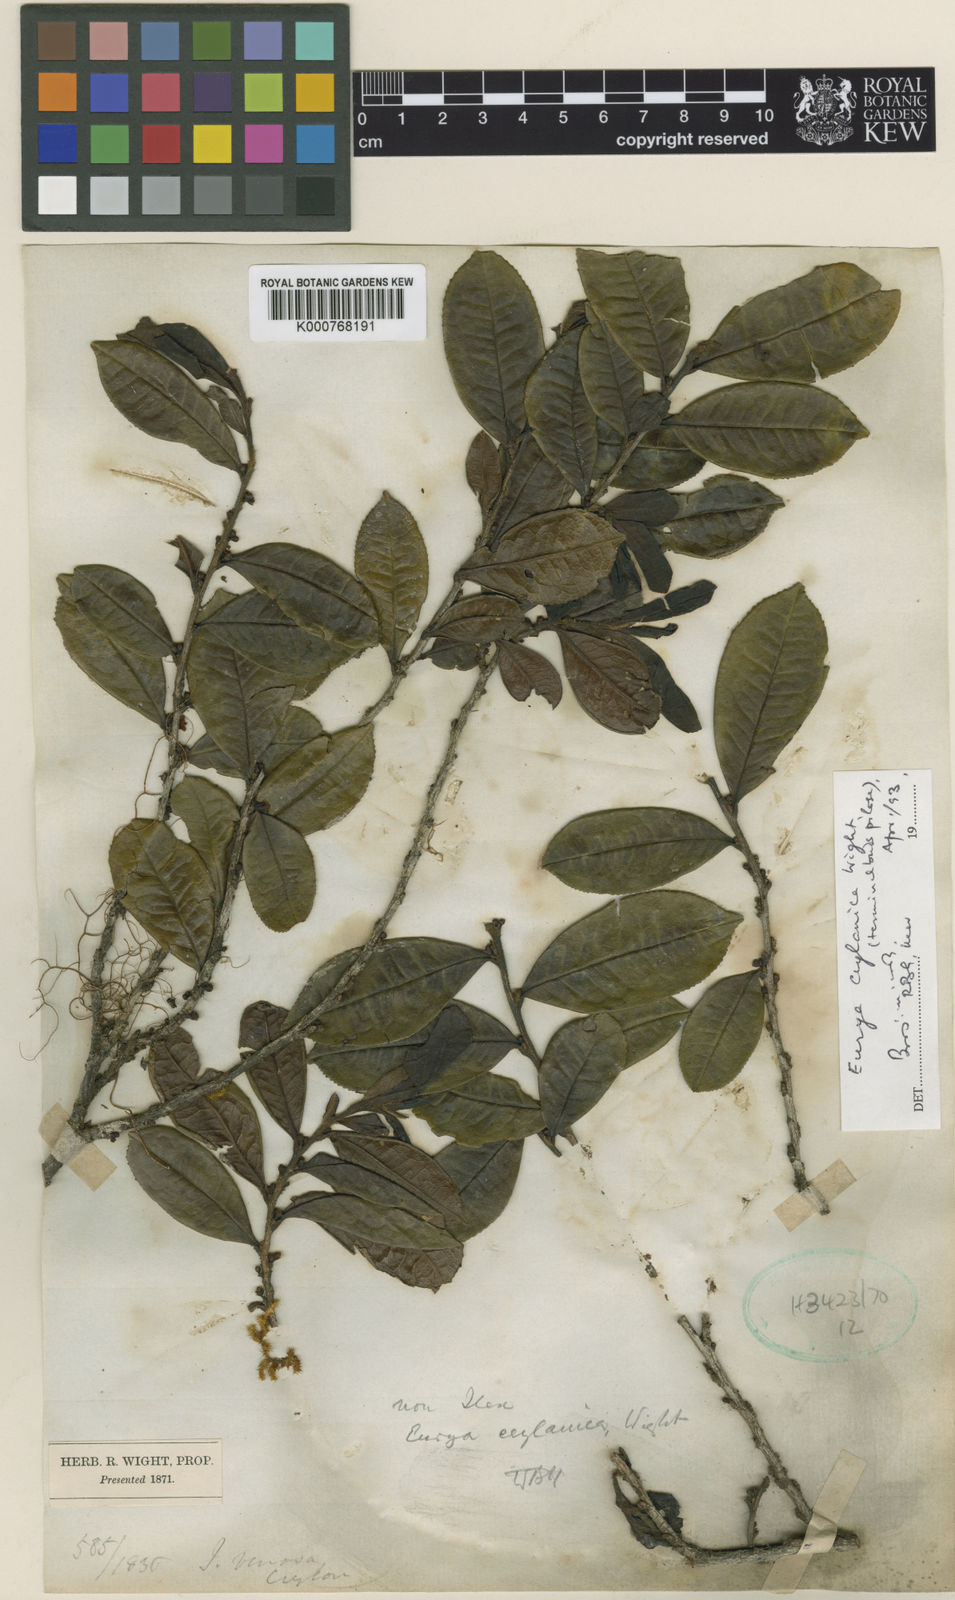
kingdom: Plantae
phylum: Tracheophyta
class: Magnoliopsida
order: Ericales
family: Pentaphylacaceae
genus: Eurya
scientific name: Eurya ceylanica
